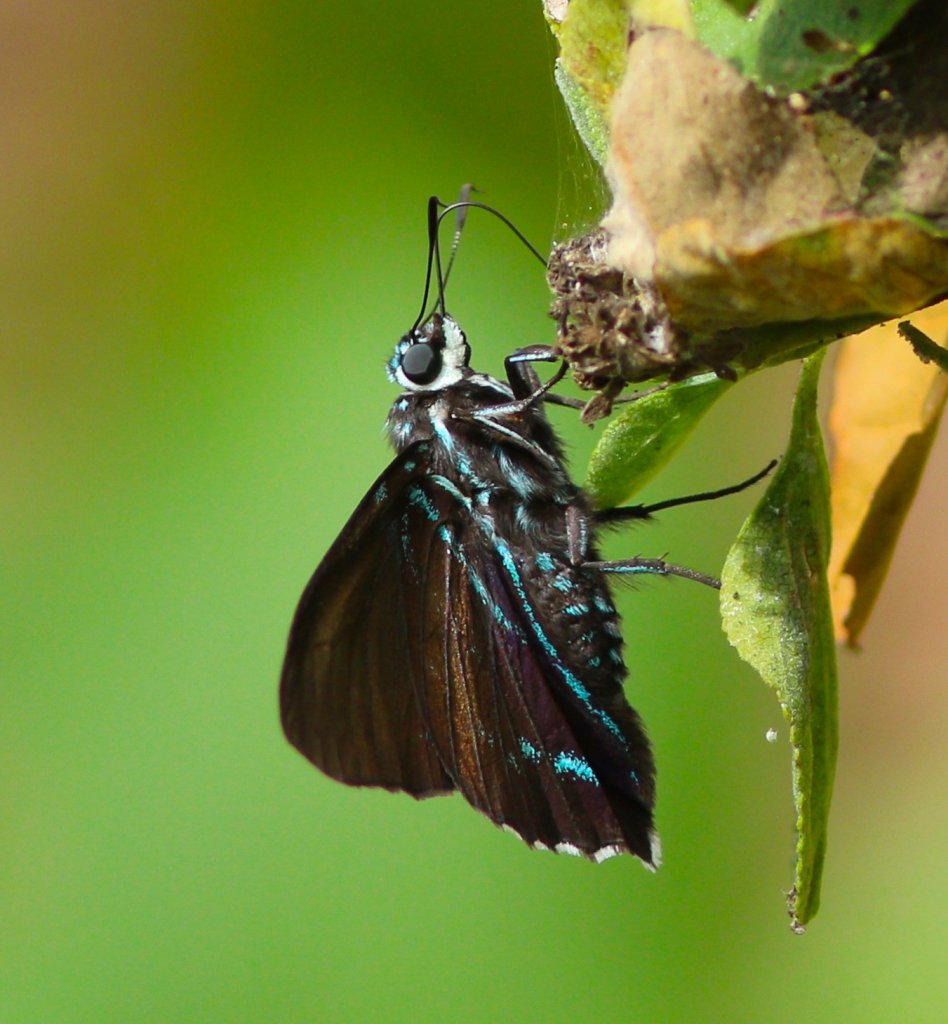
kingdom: Animalia
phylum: Arthropoda
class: Insecta
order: Lepidoptera
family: Hesperiidae
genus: Phocides
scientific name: Phocides pigmalion
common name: Mangrove Skipper
